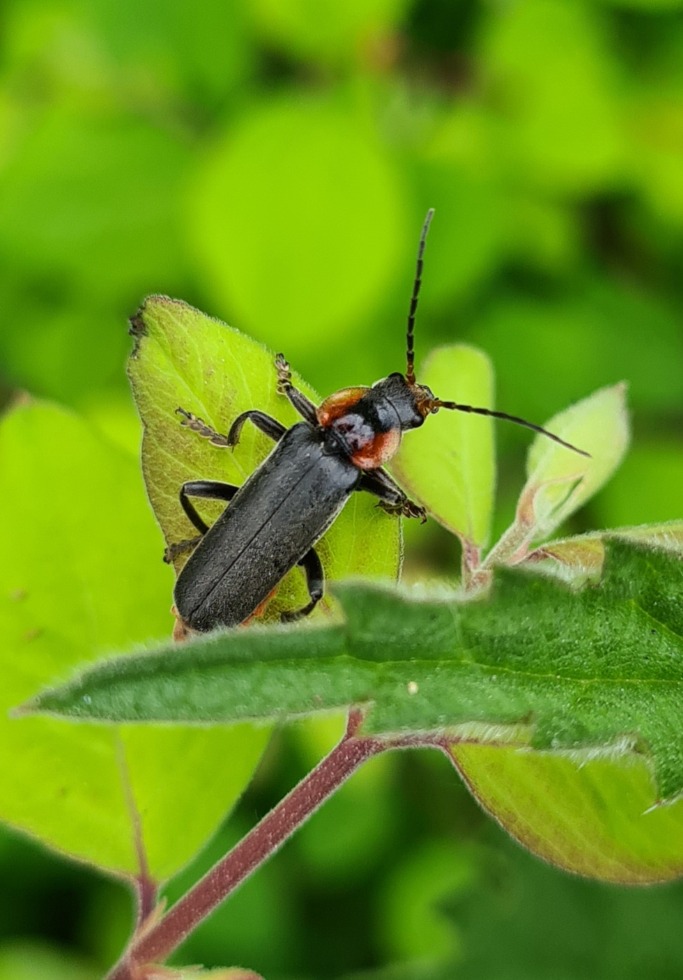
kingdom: Animalia
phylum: Arthropoda
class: Insecta
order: Coleoptera
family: Cantharidae
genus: Cantharis
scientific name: Cantharis fusca
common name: Stor blødvinge
